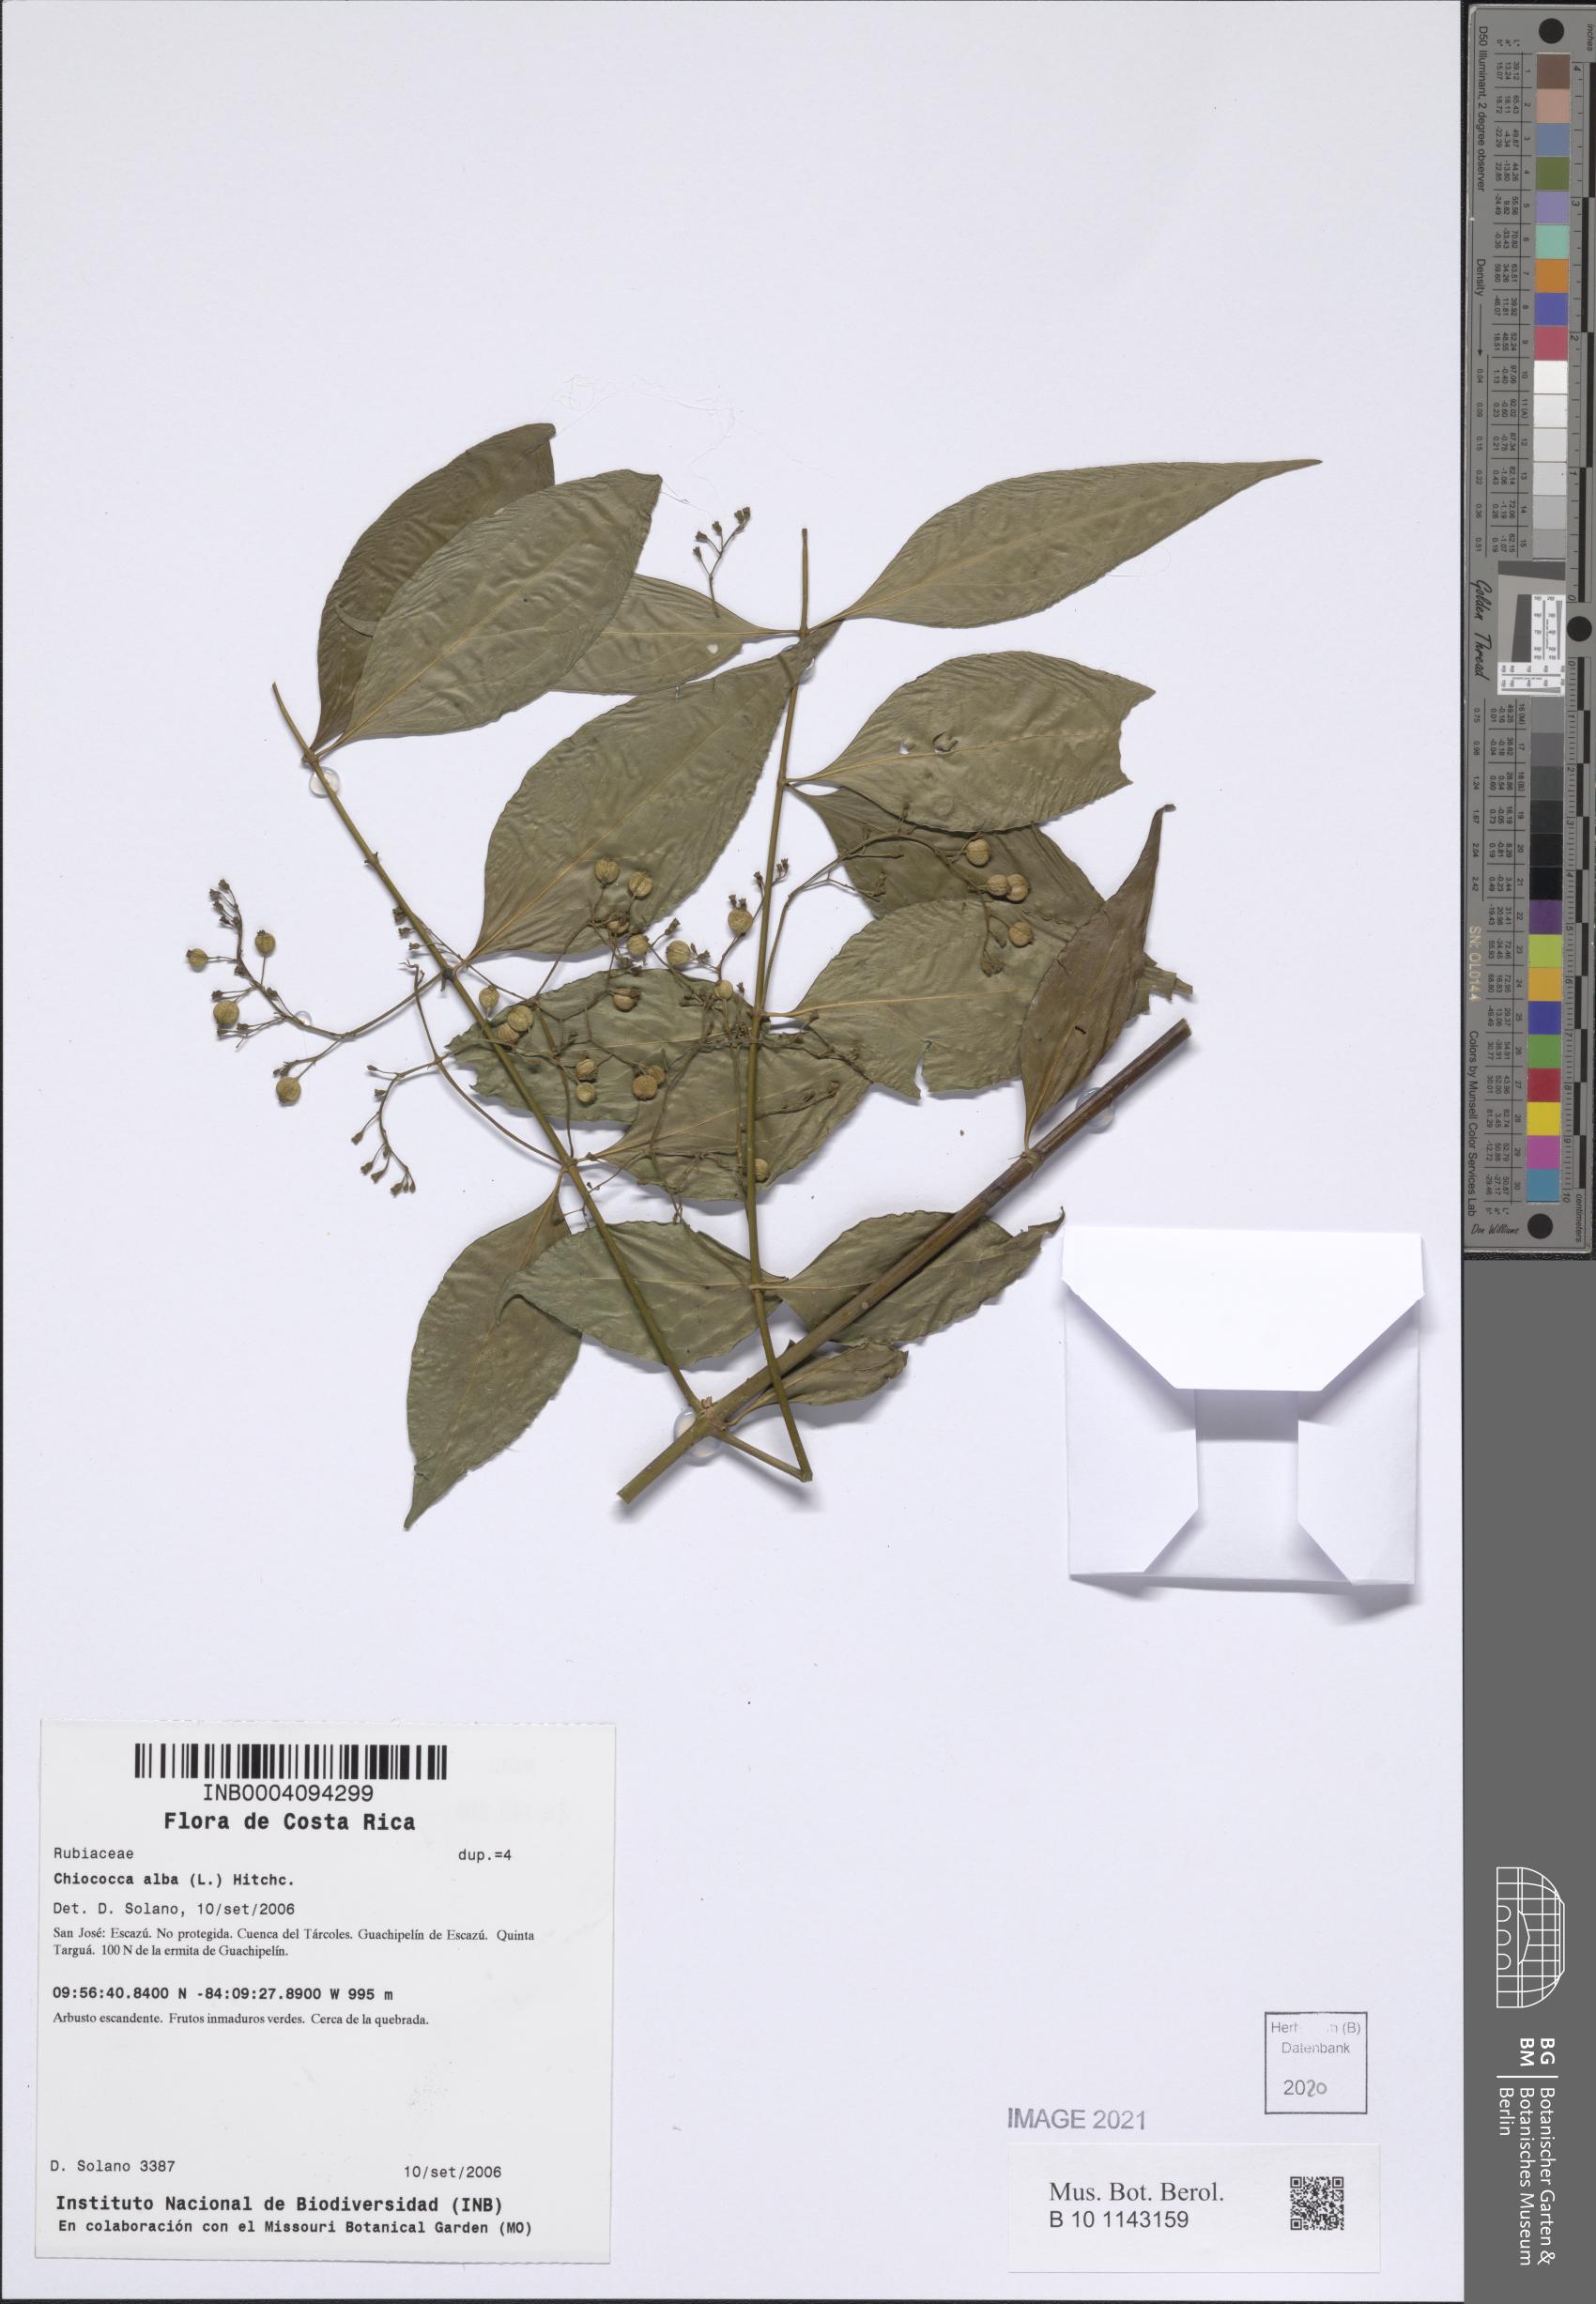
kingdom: Plantae
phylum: Tracheophyta
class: Magnoliopsida
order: Gentianales
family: Rubiaceae
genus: Chiococca
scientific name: Chiococca alba
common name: Snowberry
